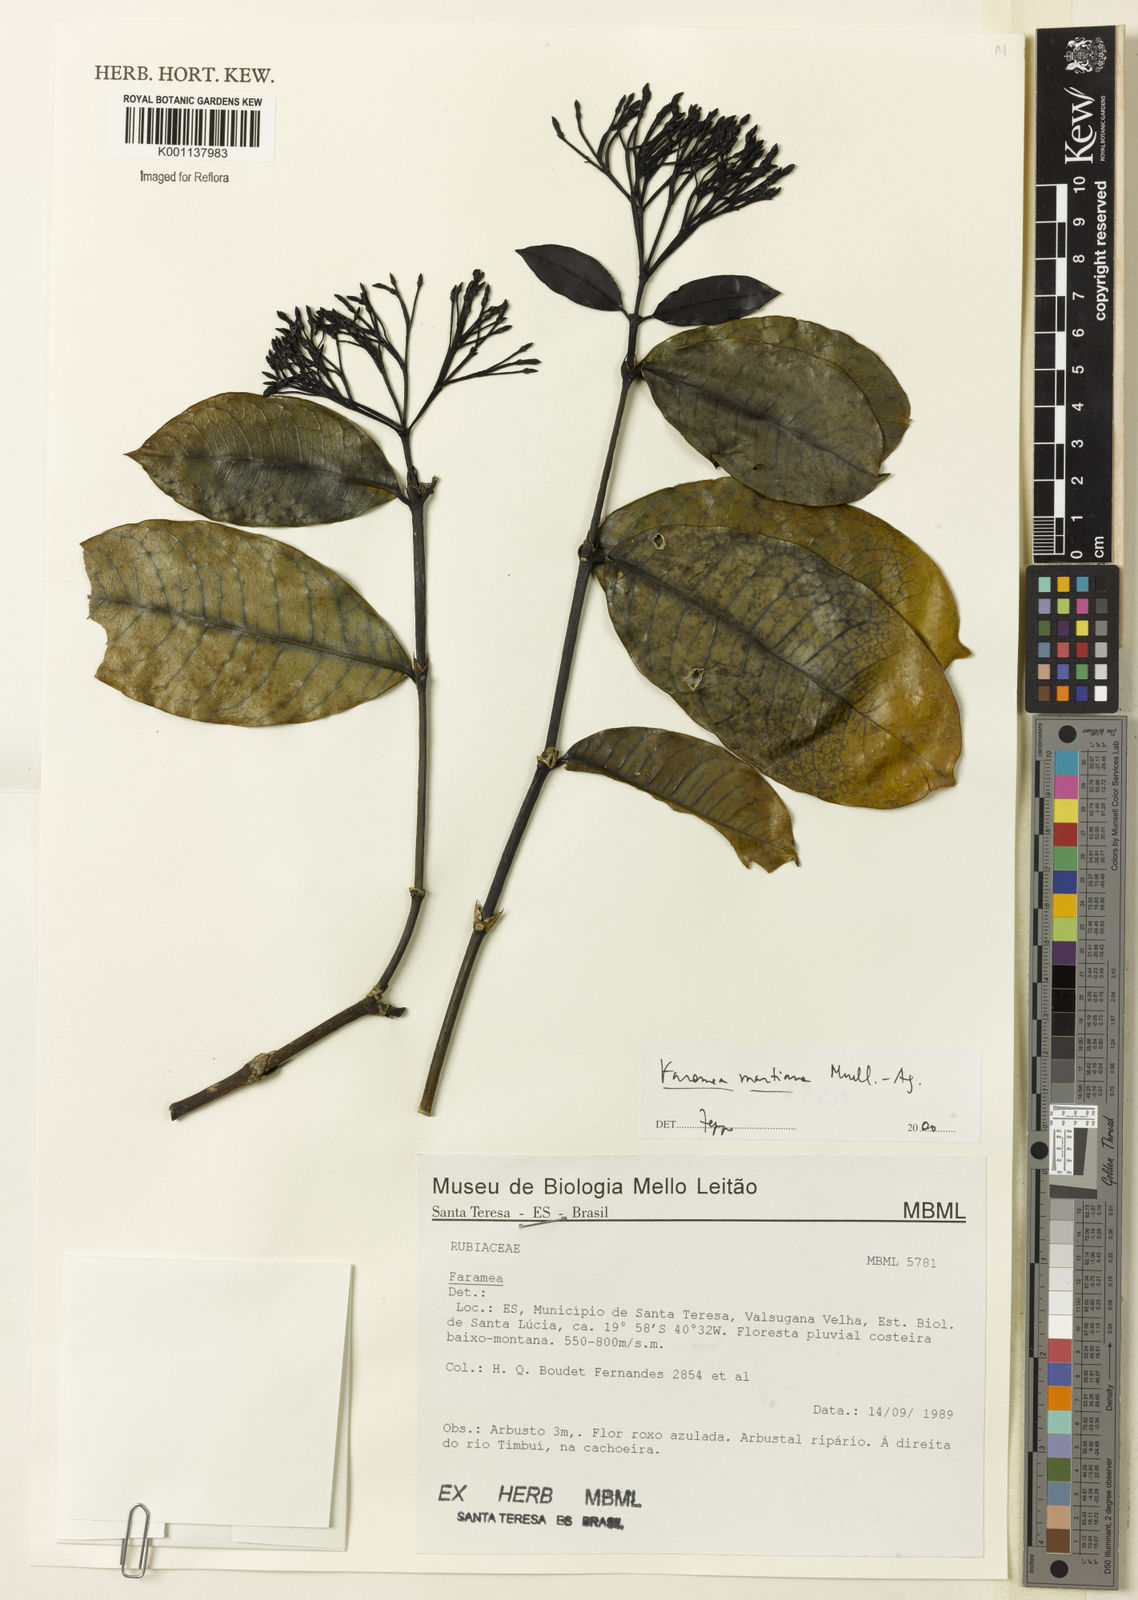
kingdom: Plantae
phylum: Tracheophyta
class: Magnoliopsida
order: Gentianales
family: Rubiaceae
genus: Faramea
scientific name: Faramea
